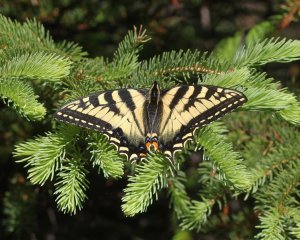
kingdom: Animalia
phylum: Arthropoda
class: Insecta
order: Lepidoptera
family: Papilionidae
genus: Pterourus
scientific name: Pterourus canadensis
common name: Canadian Tiger Swallowtail
